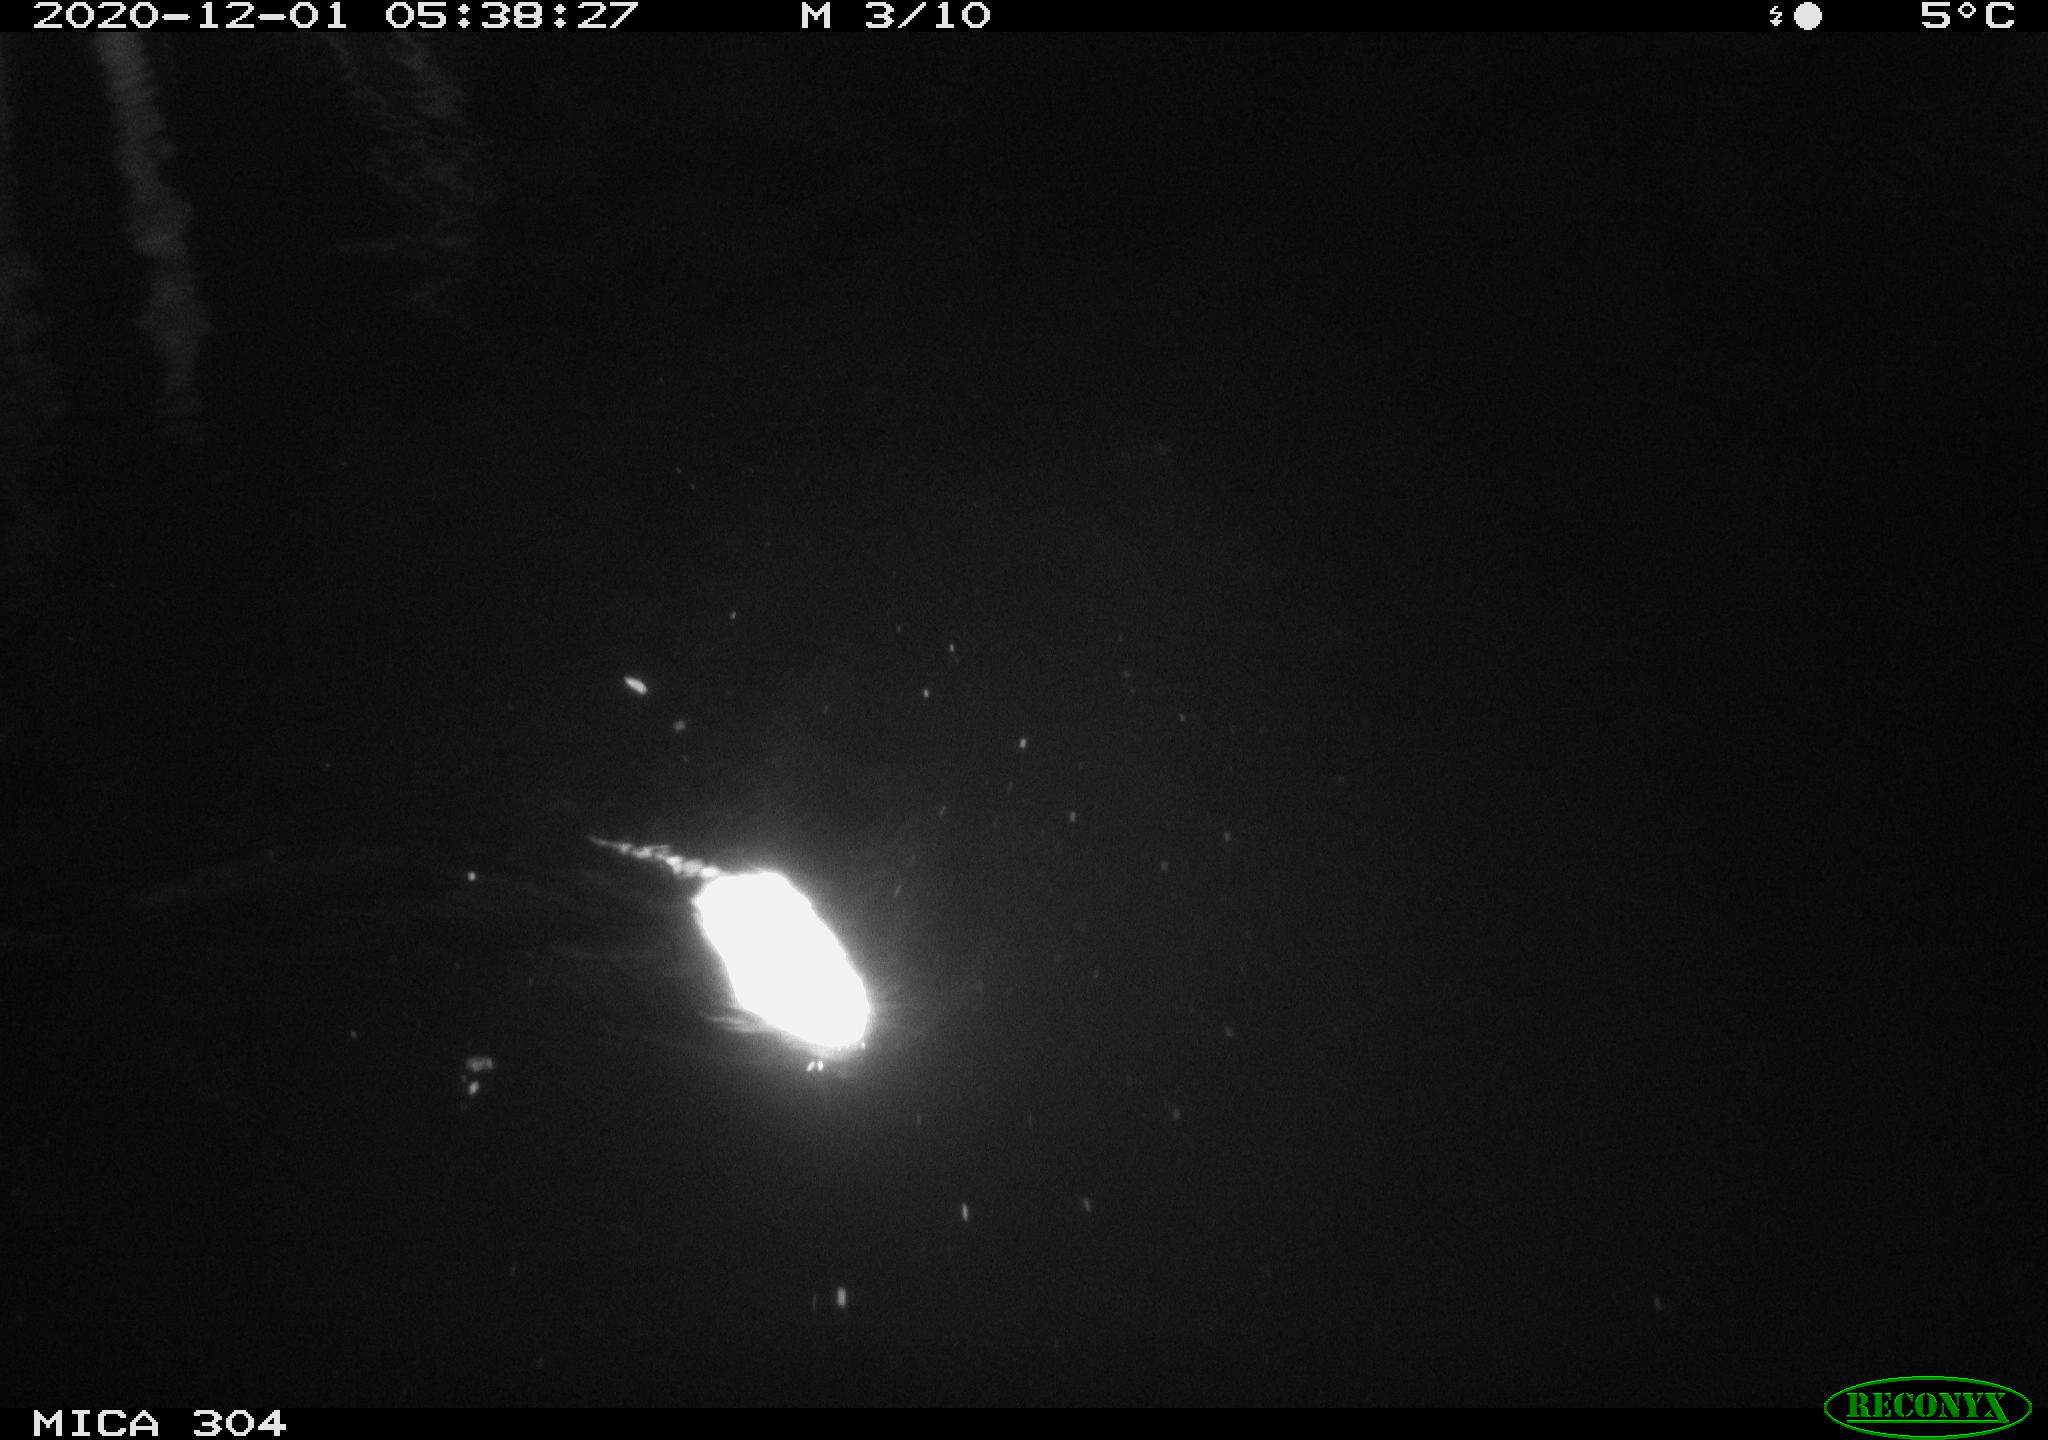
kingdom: Animalia
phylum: Chordata
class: Mammalia
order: Rodentia
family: Muridae
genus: Rattus
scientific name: Rattus norvegicus
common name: Brown rat
